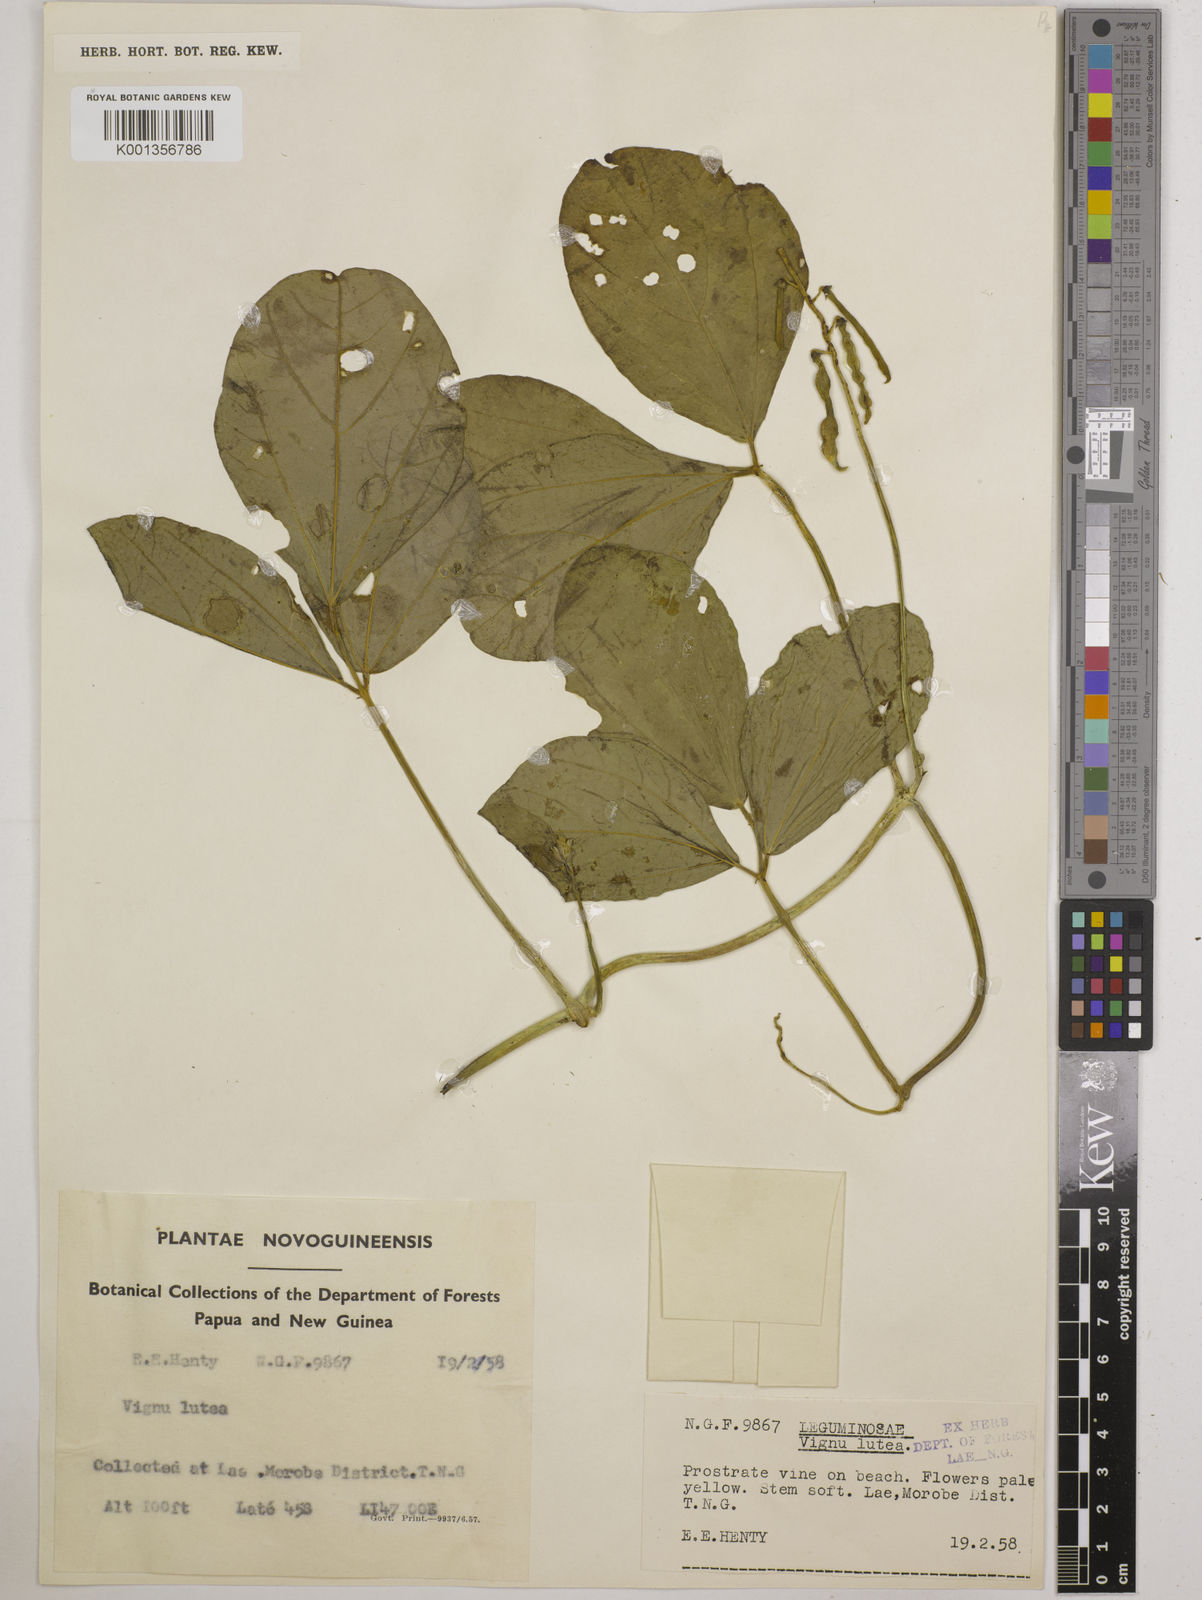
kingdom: Plantae
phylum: Tracheophyta
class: Magnoliopsida
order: Fabales
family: Fabaceae
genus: Vigna
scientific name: Vigna marina
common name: Dune-bean
